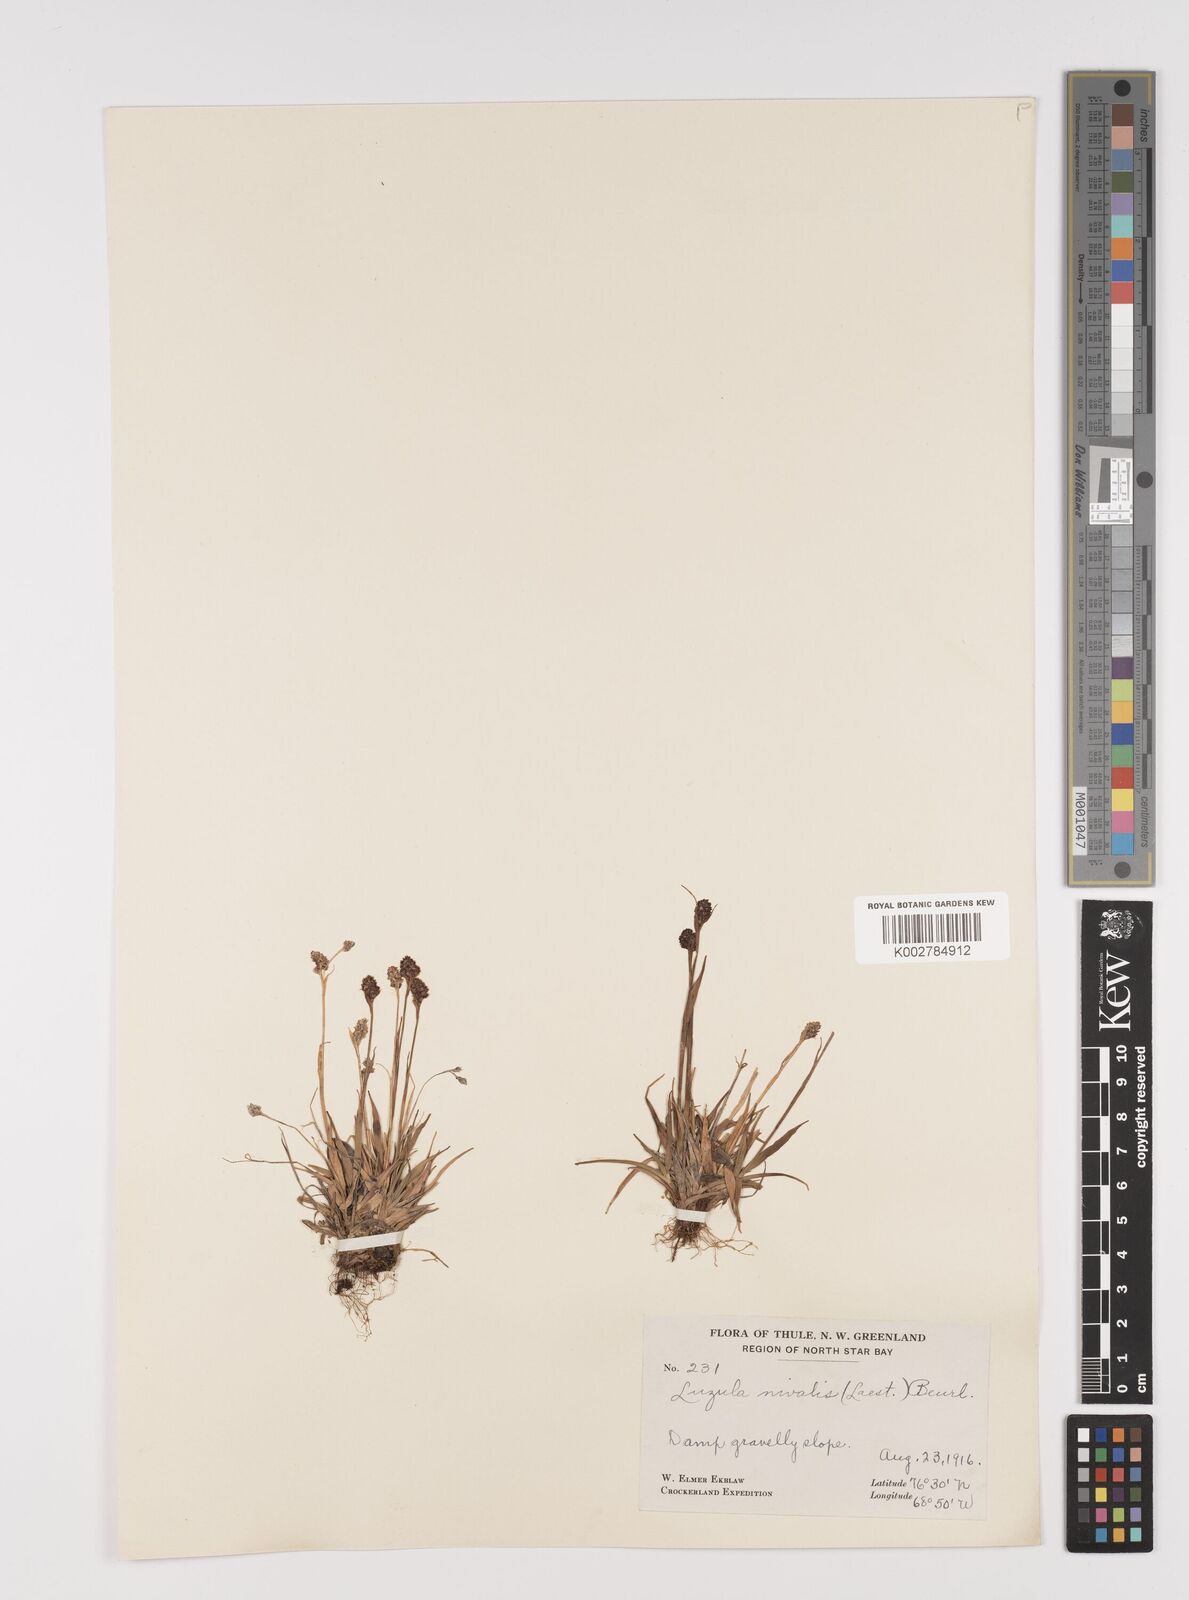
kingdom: Plantae
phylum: Tracheophyta
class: Liliopsida
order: Poales
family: Juncaceae
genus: Luzula
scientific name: Luzula nivalis
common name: Arctic woodrush
